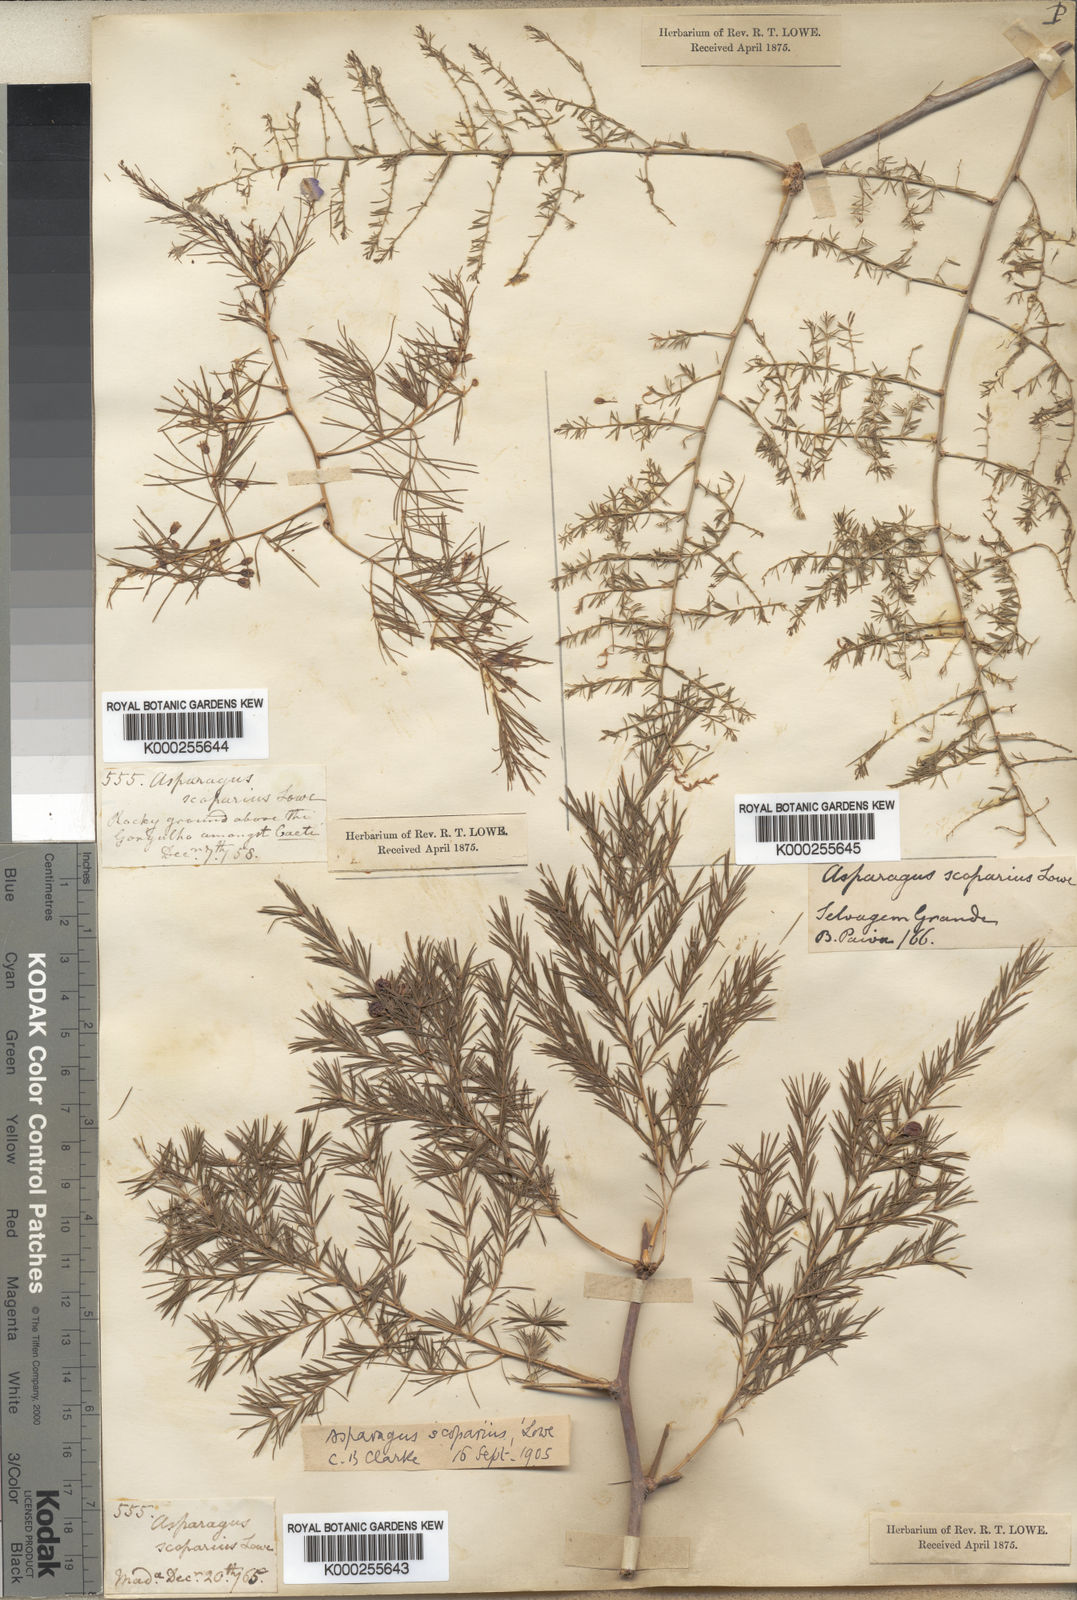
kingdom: Plantae
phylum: Tracheophyta
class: Liliopsida
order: Asparagales
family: Asparagaceae
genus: Asparagus
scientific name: Asparagus scoparius
